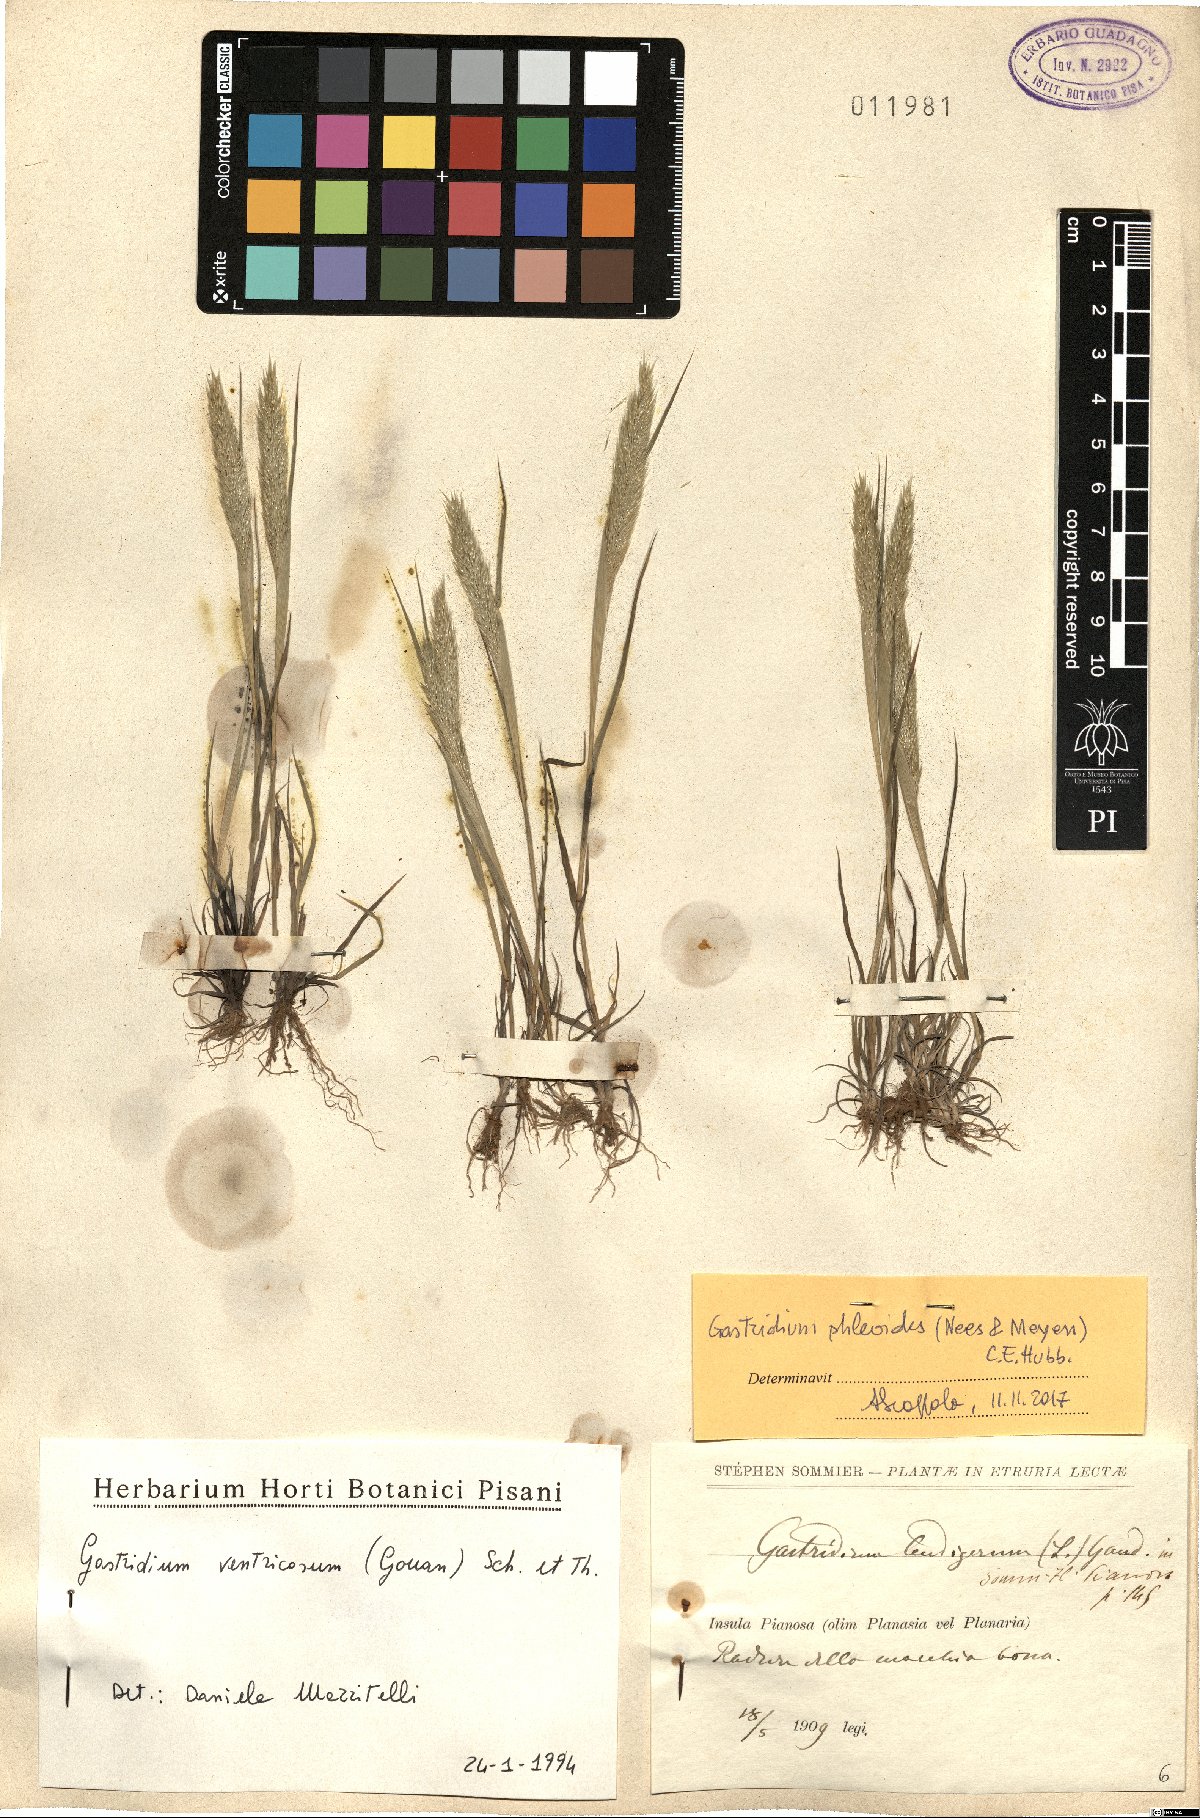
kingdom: Plantae
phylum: Tracheophyta
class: Liliopsida
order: Poales
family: Poaceae
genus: Gastridium
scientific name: Gastridium phleoides
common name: Nit grass
